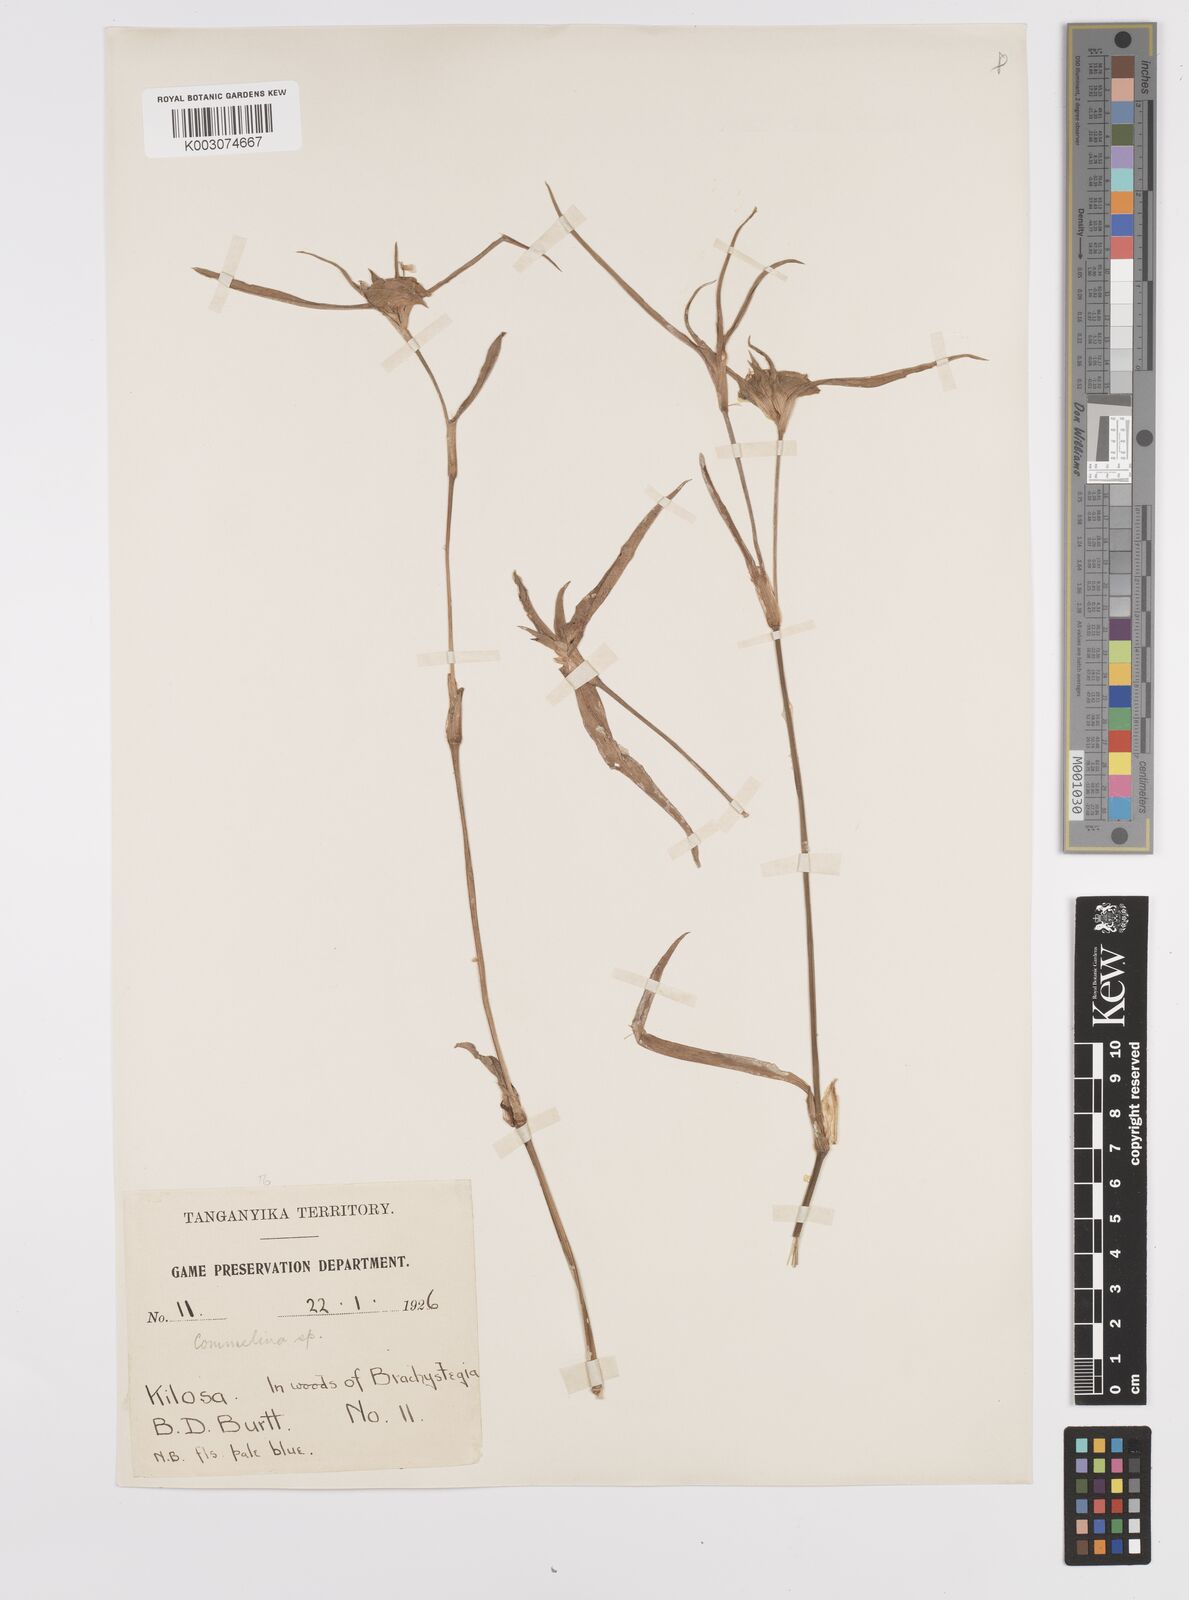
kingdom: Plantae
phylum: Tracheophyta
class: Liliopsida
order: Commelinales
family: Commelinaceae
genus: Commelina
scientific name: Commelina erecta
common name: Blousel blommetjie
